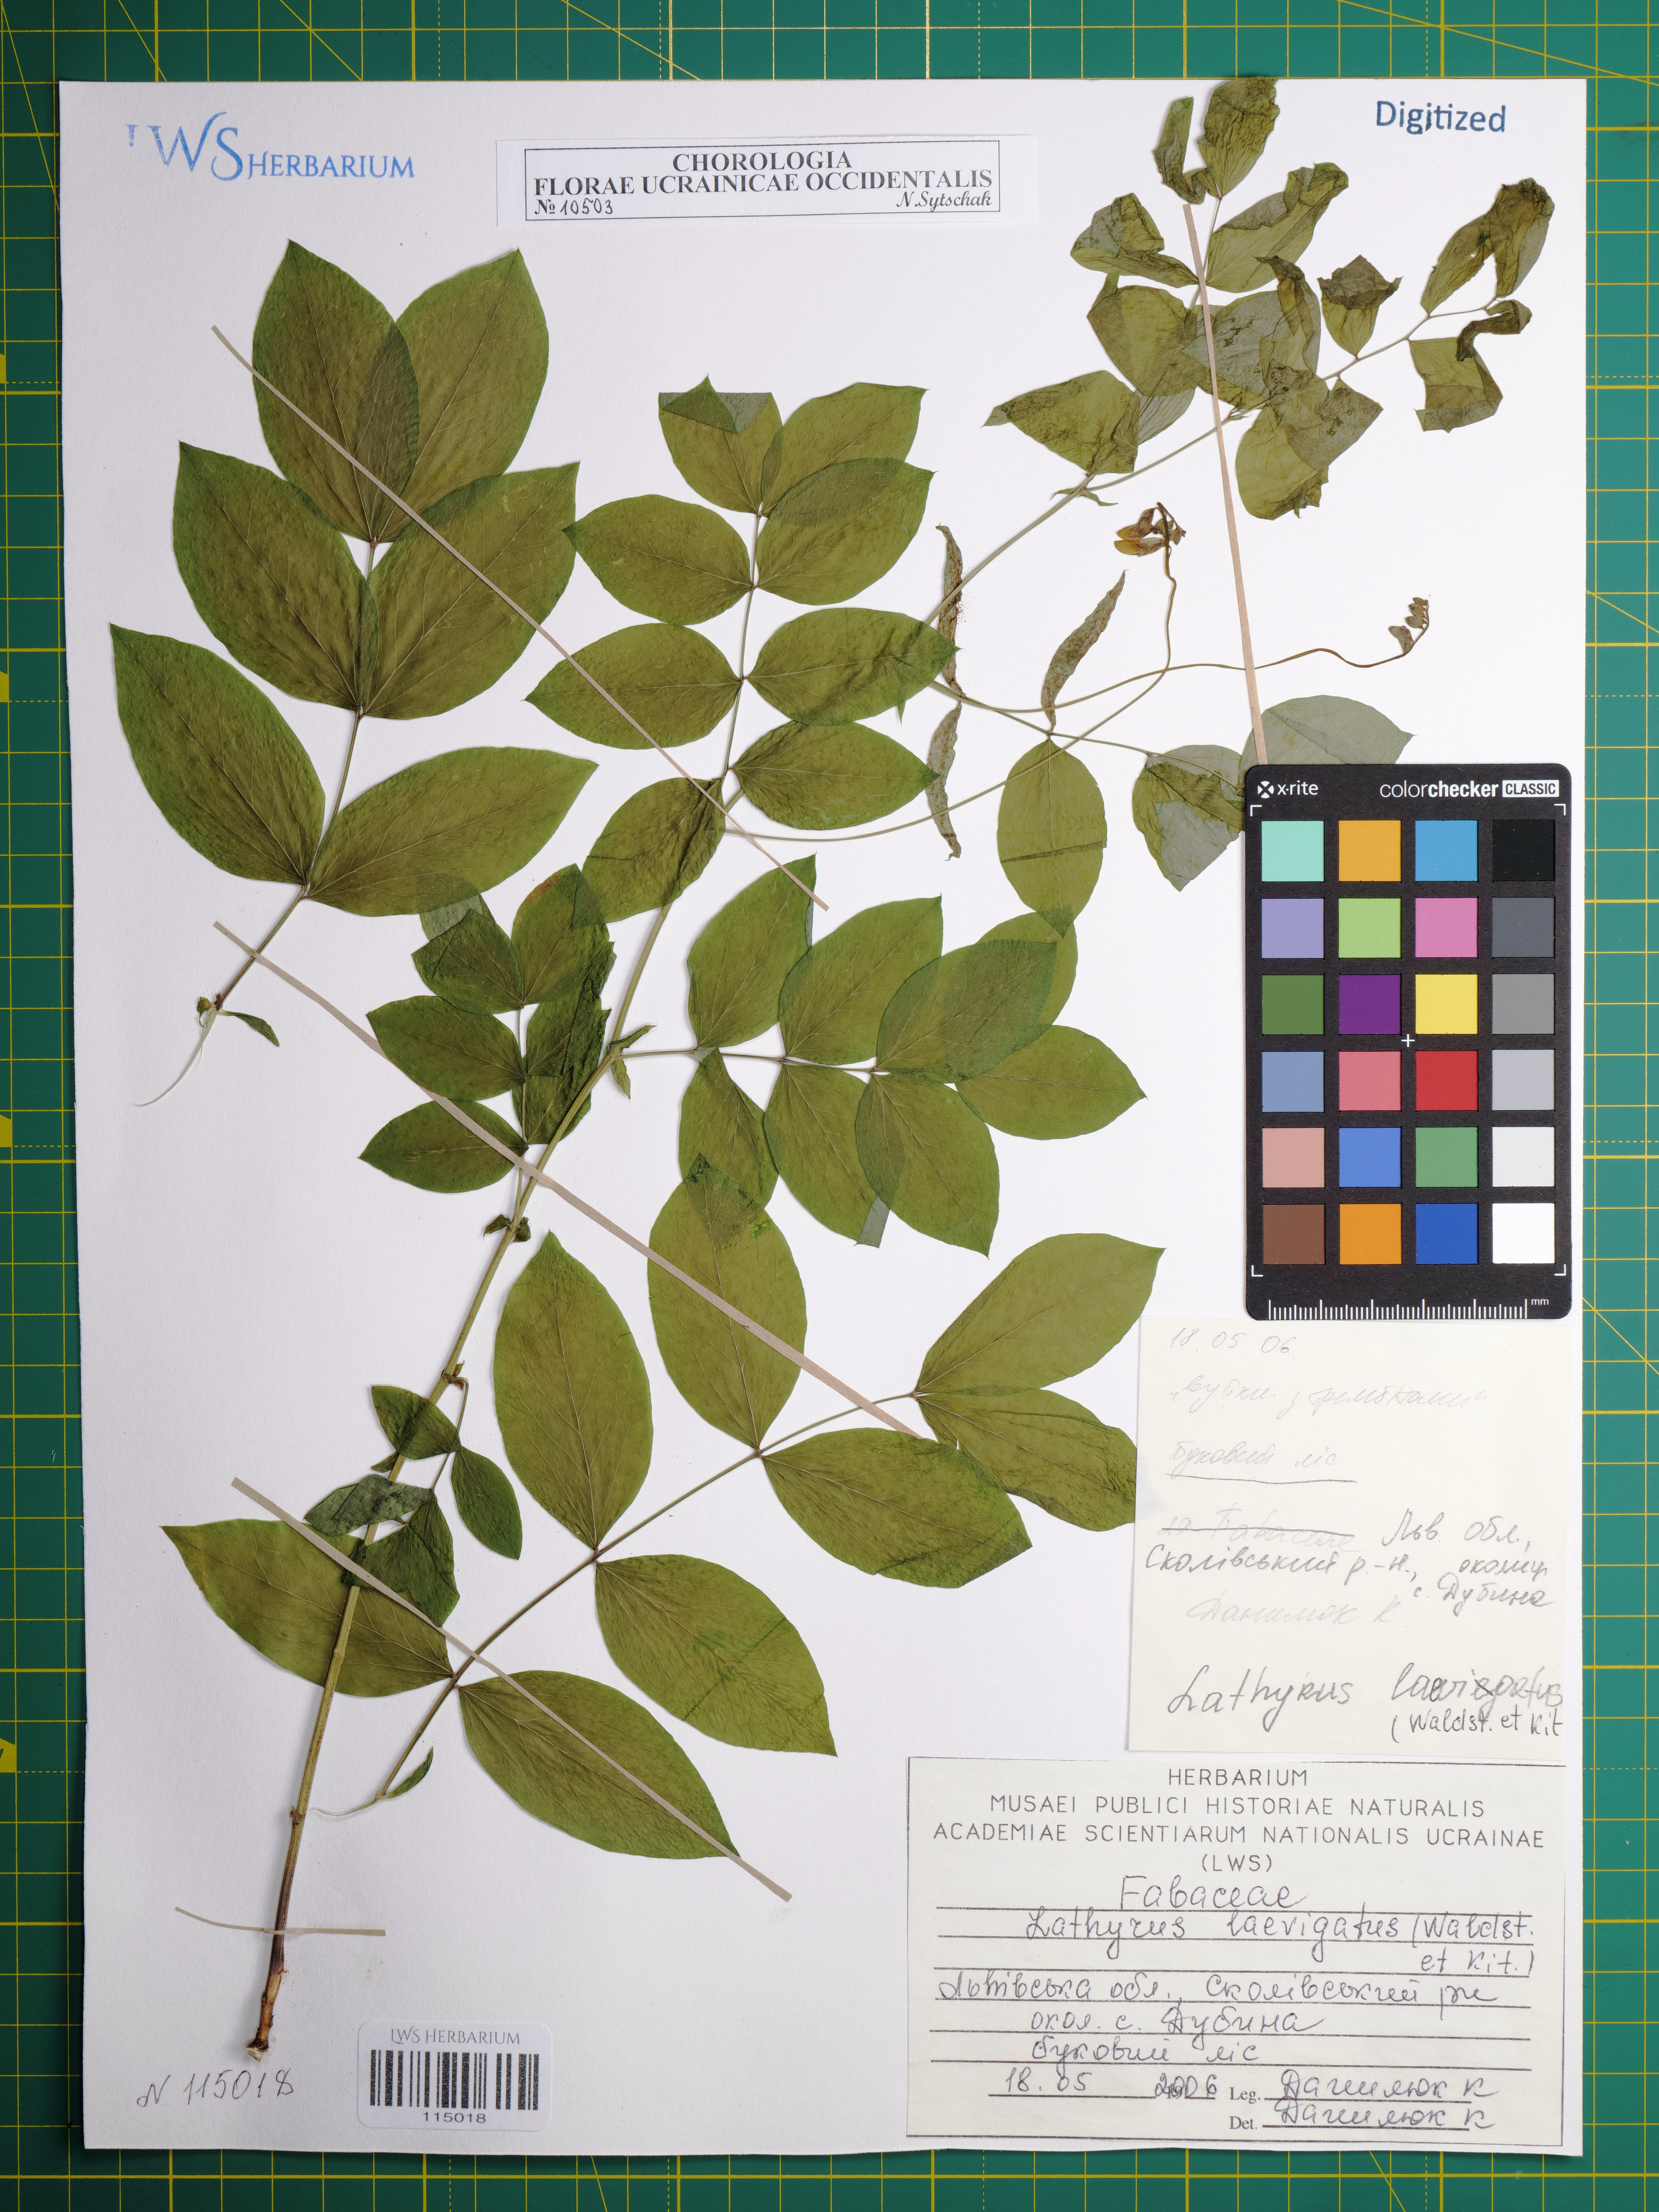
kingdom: Plantae
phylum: Tracheophyta
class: Magnoliopsida
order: Fabales
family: Fabaceae
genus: Lathyrus
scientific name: Lathyrus laevigatus
